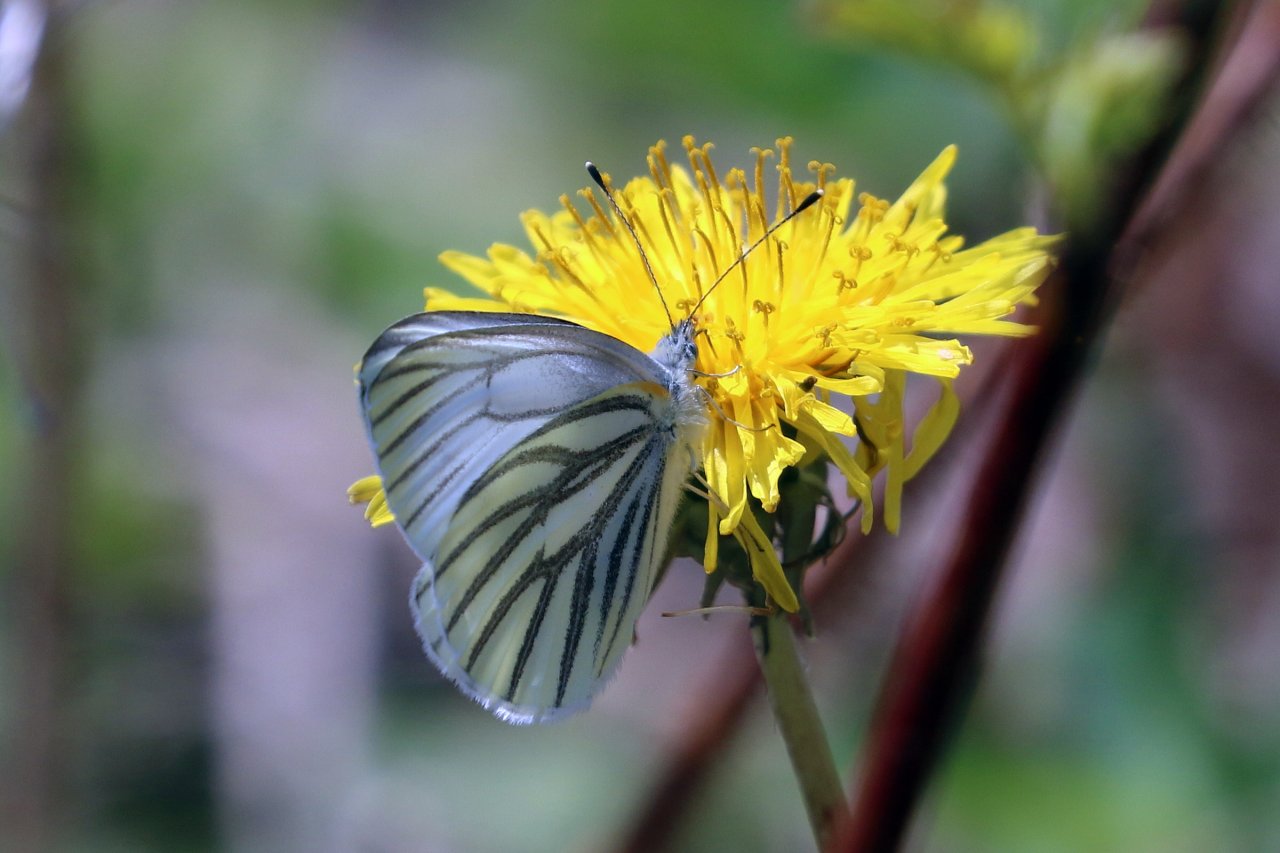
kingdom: Animalia
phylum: Arthropoda
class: Insecta
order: Lepidoptera
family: Pieridae
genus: Pieris
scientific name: Pieris oleracea
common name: Mustard White
